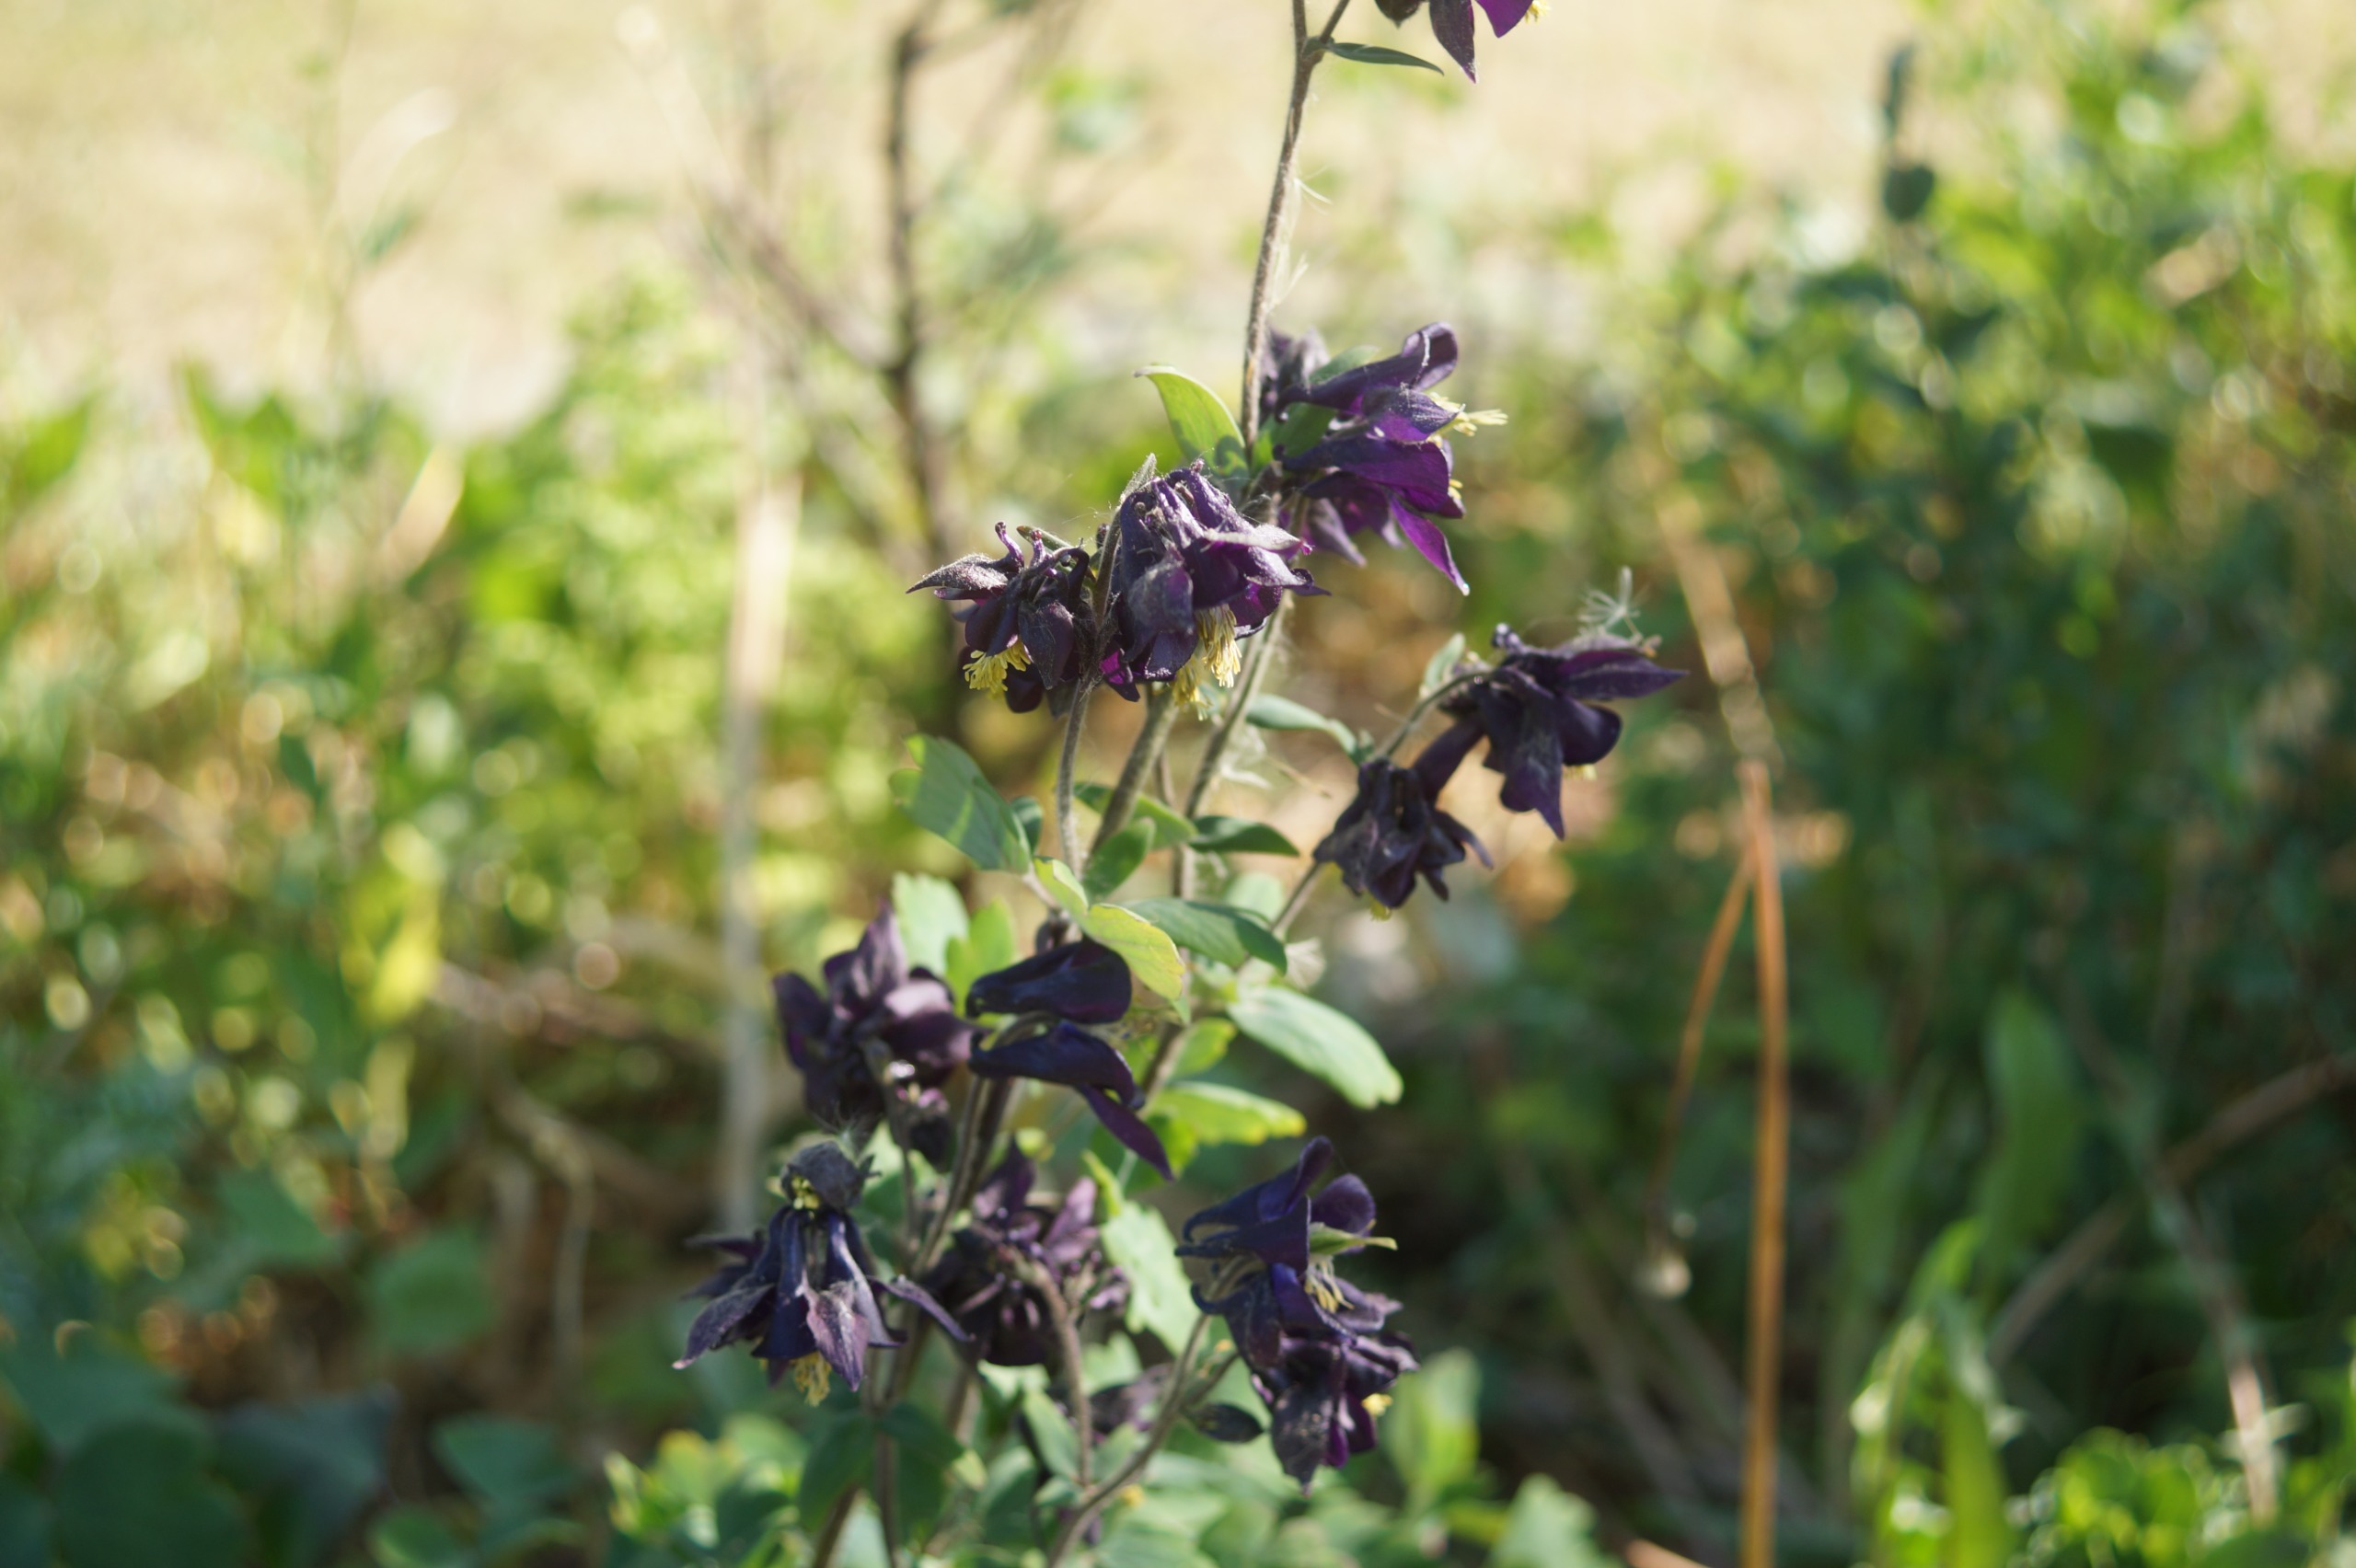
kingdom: Plantae
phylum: Tracheophyta
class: Magnoliopsida
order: Ranunculales
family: Ranunculaceae
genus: Aquilegia
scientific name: Aquilegia vulgaris
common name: Akeleje
